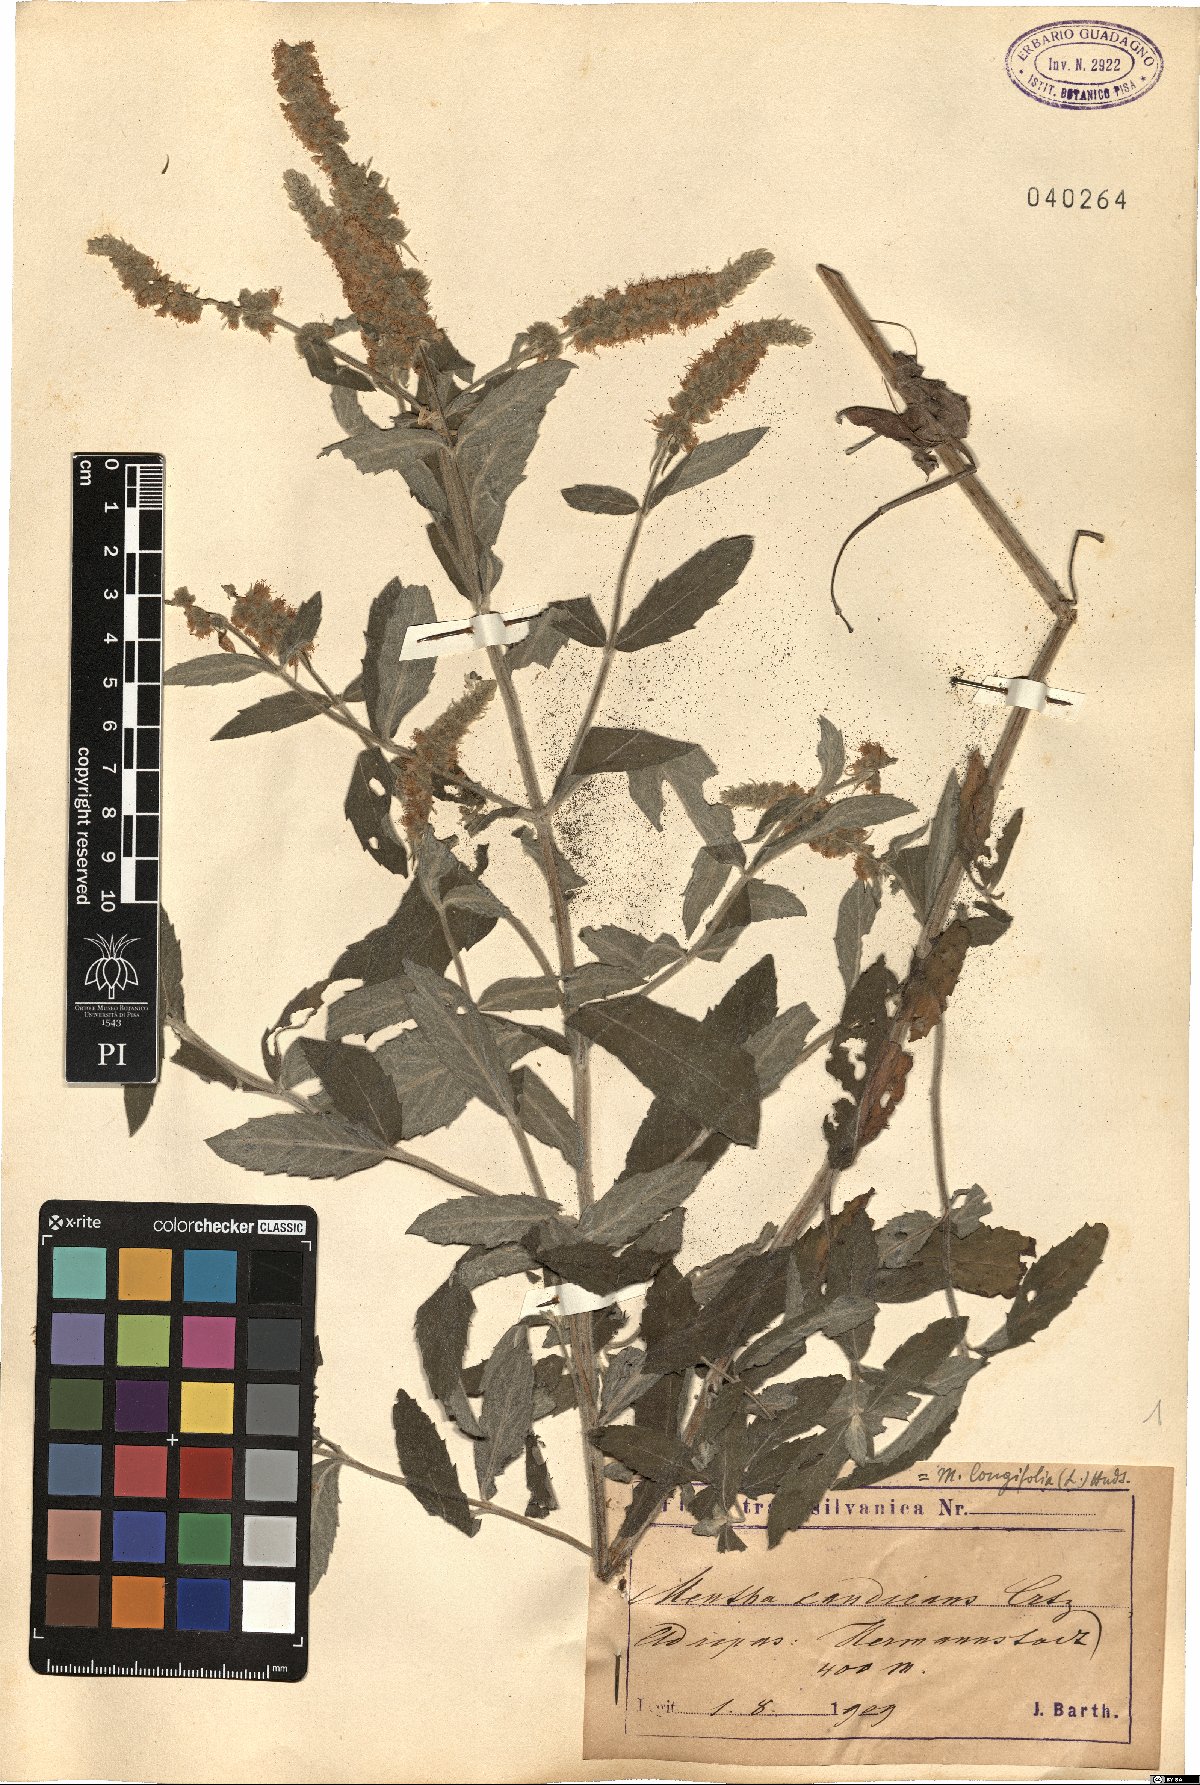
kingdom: Plantae
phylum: Tracheophyta
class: Magnoliopsida
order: Lamiales
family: Lamiaceae
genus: Mentha
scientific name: Mentha longifolia
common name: Horse mint
